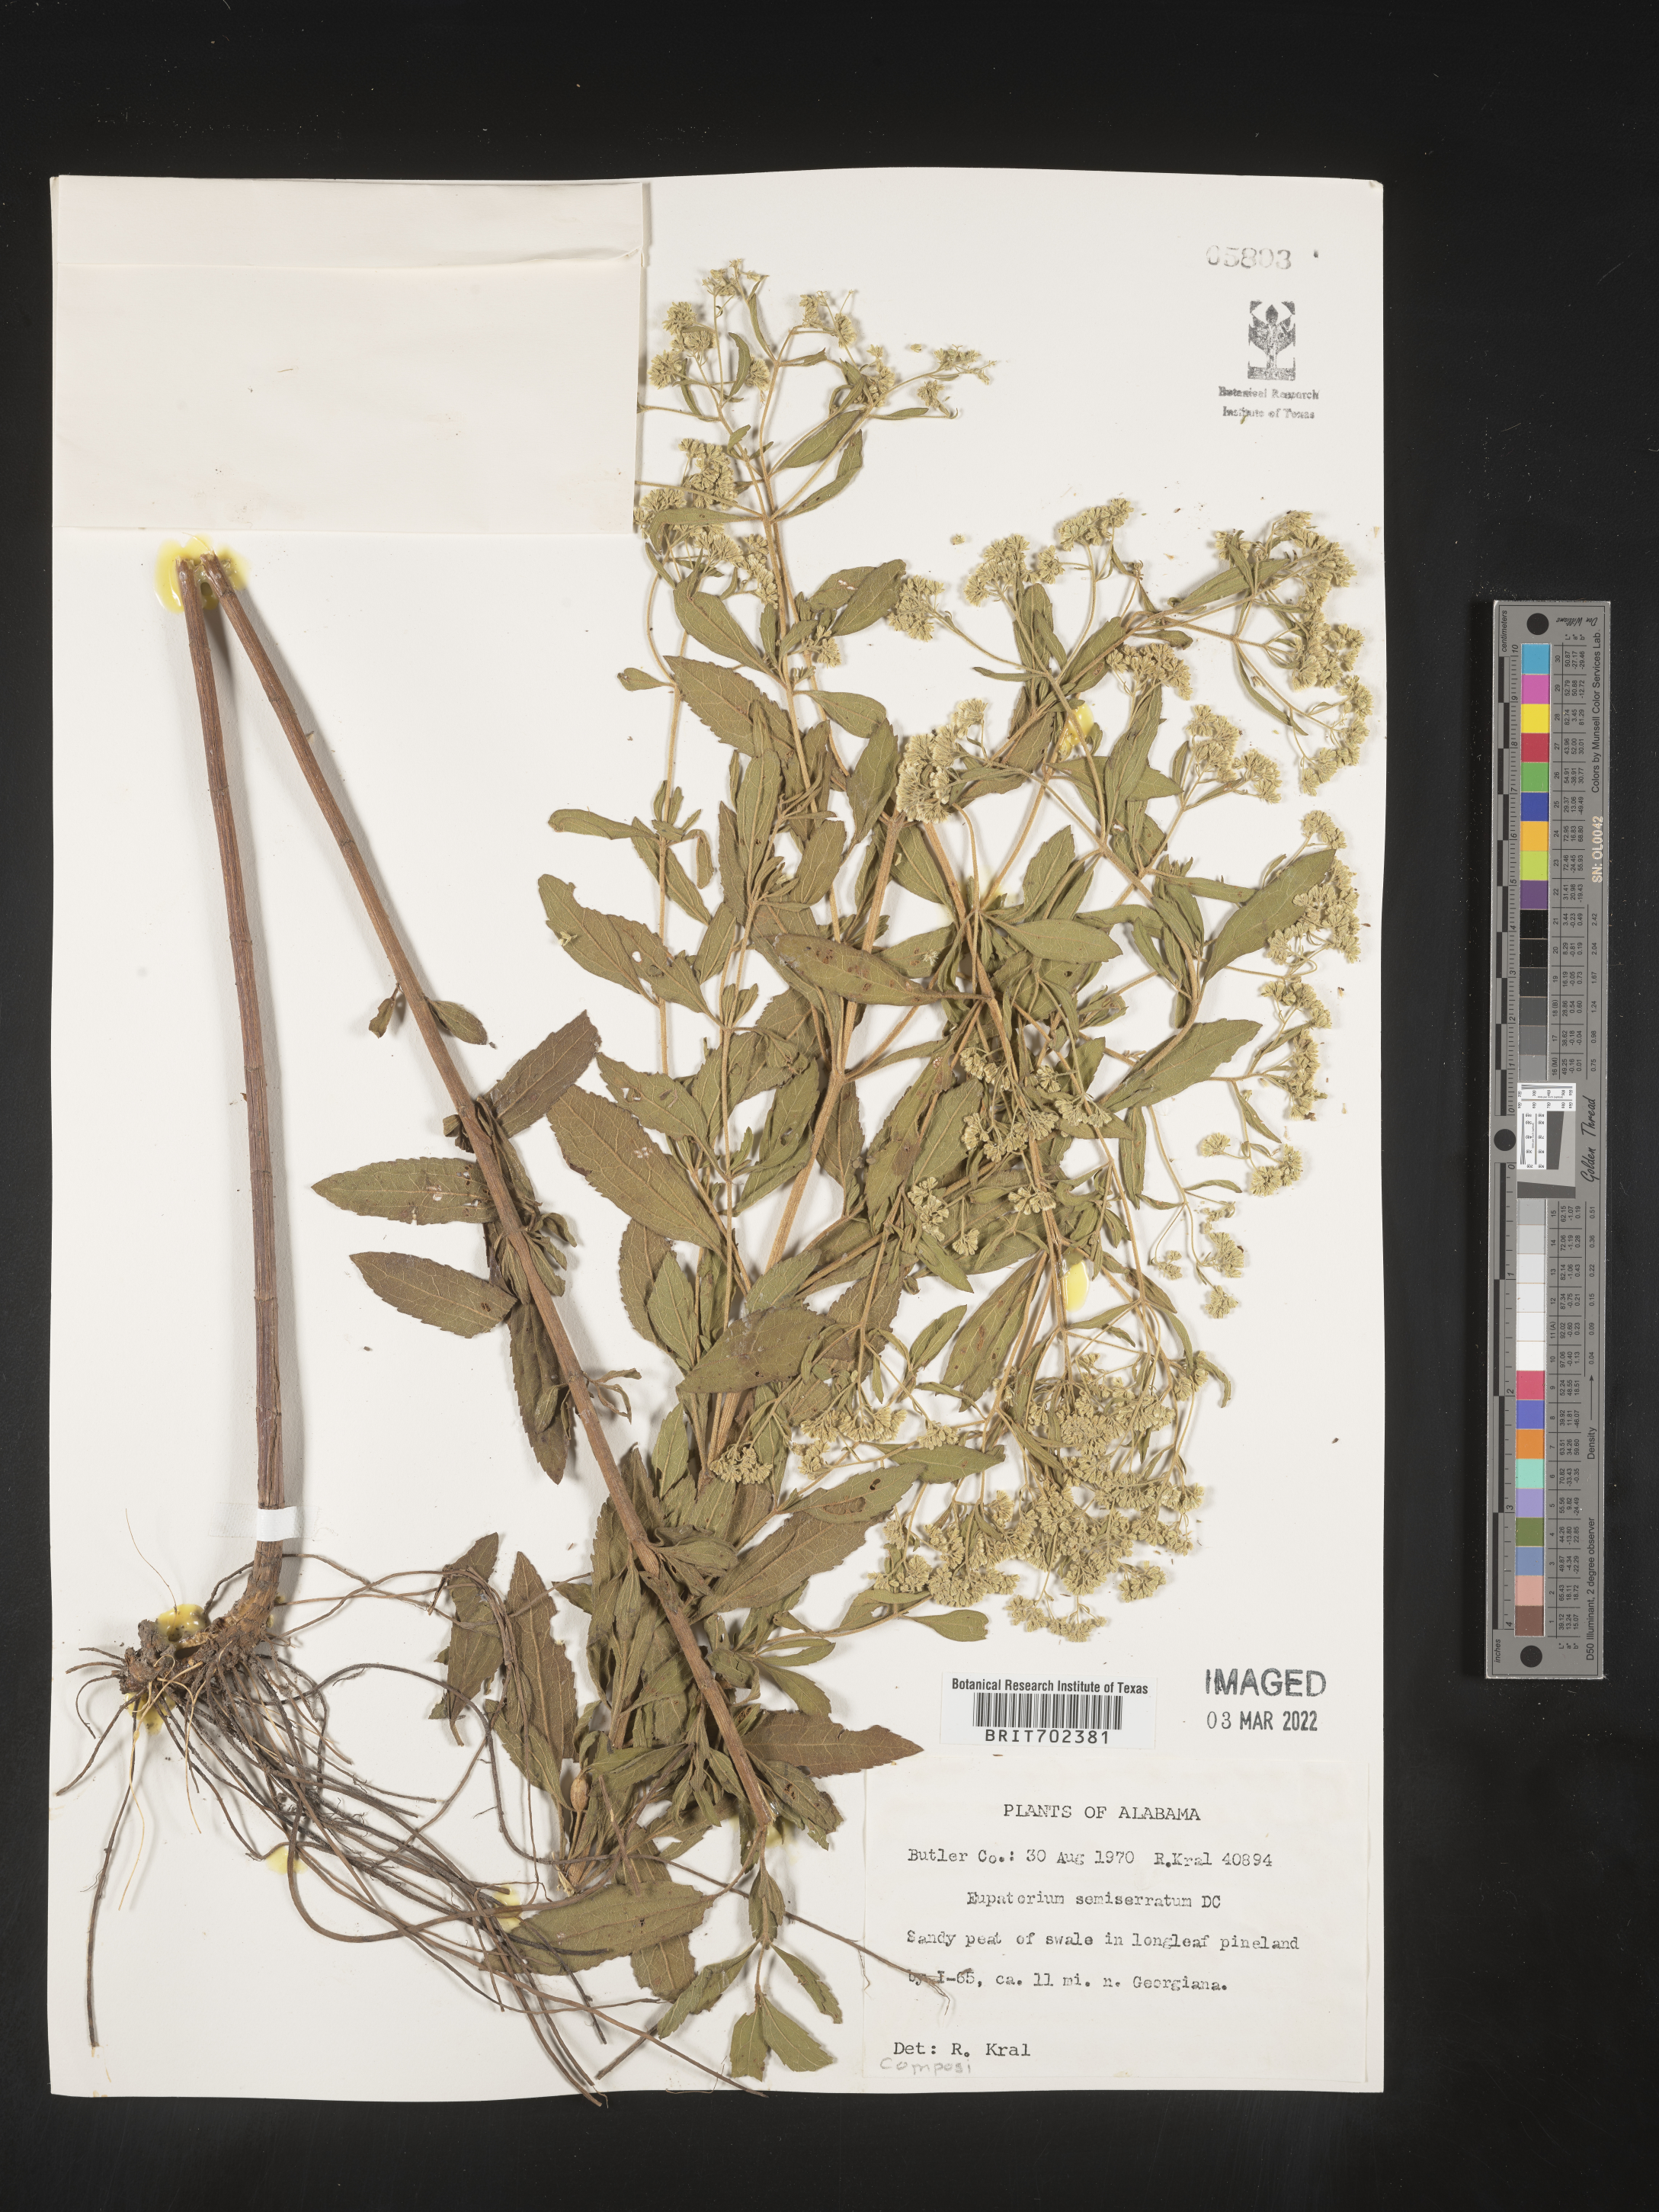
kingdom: Plantae
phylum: Tracheophyta
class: Magnoliopsida
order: Asterales
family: Asteraceae
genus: Eupatorium
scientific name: Eupatorium semiserratum
